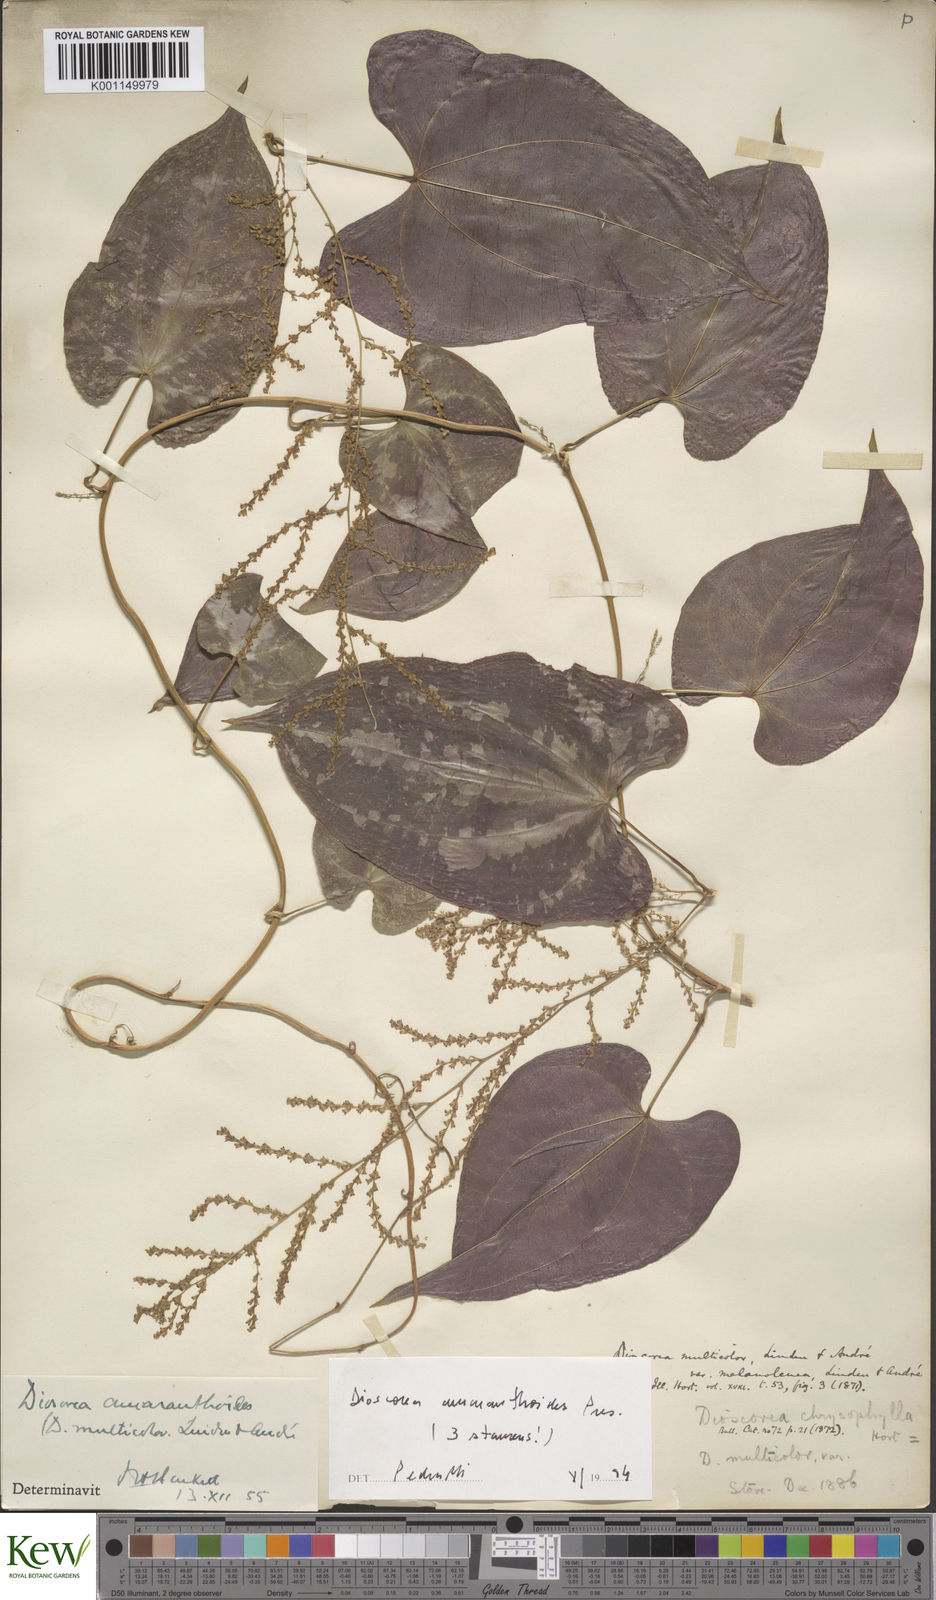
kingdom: Plantae
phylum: Tracheophyta
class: Liliopsida
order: Dioscoreales
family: Dioscoreaceae
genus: Dioscorea
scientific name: Dioscorea
